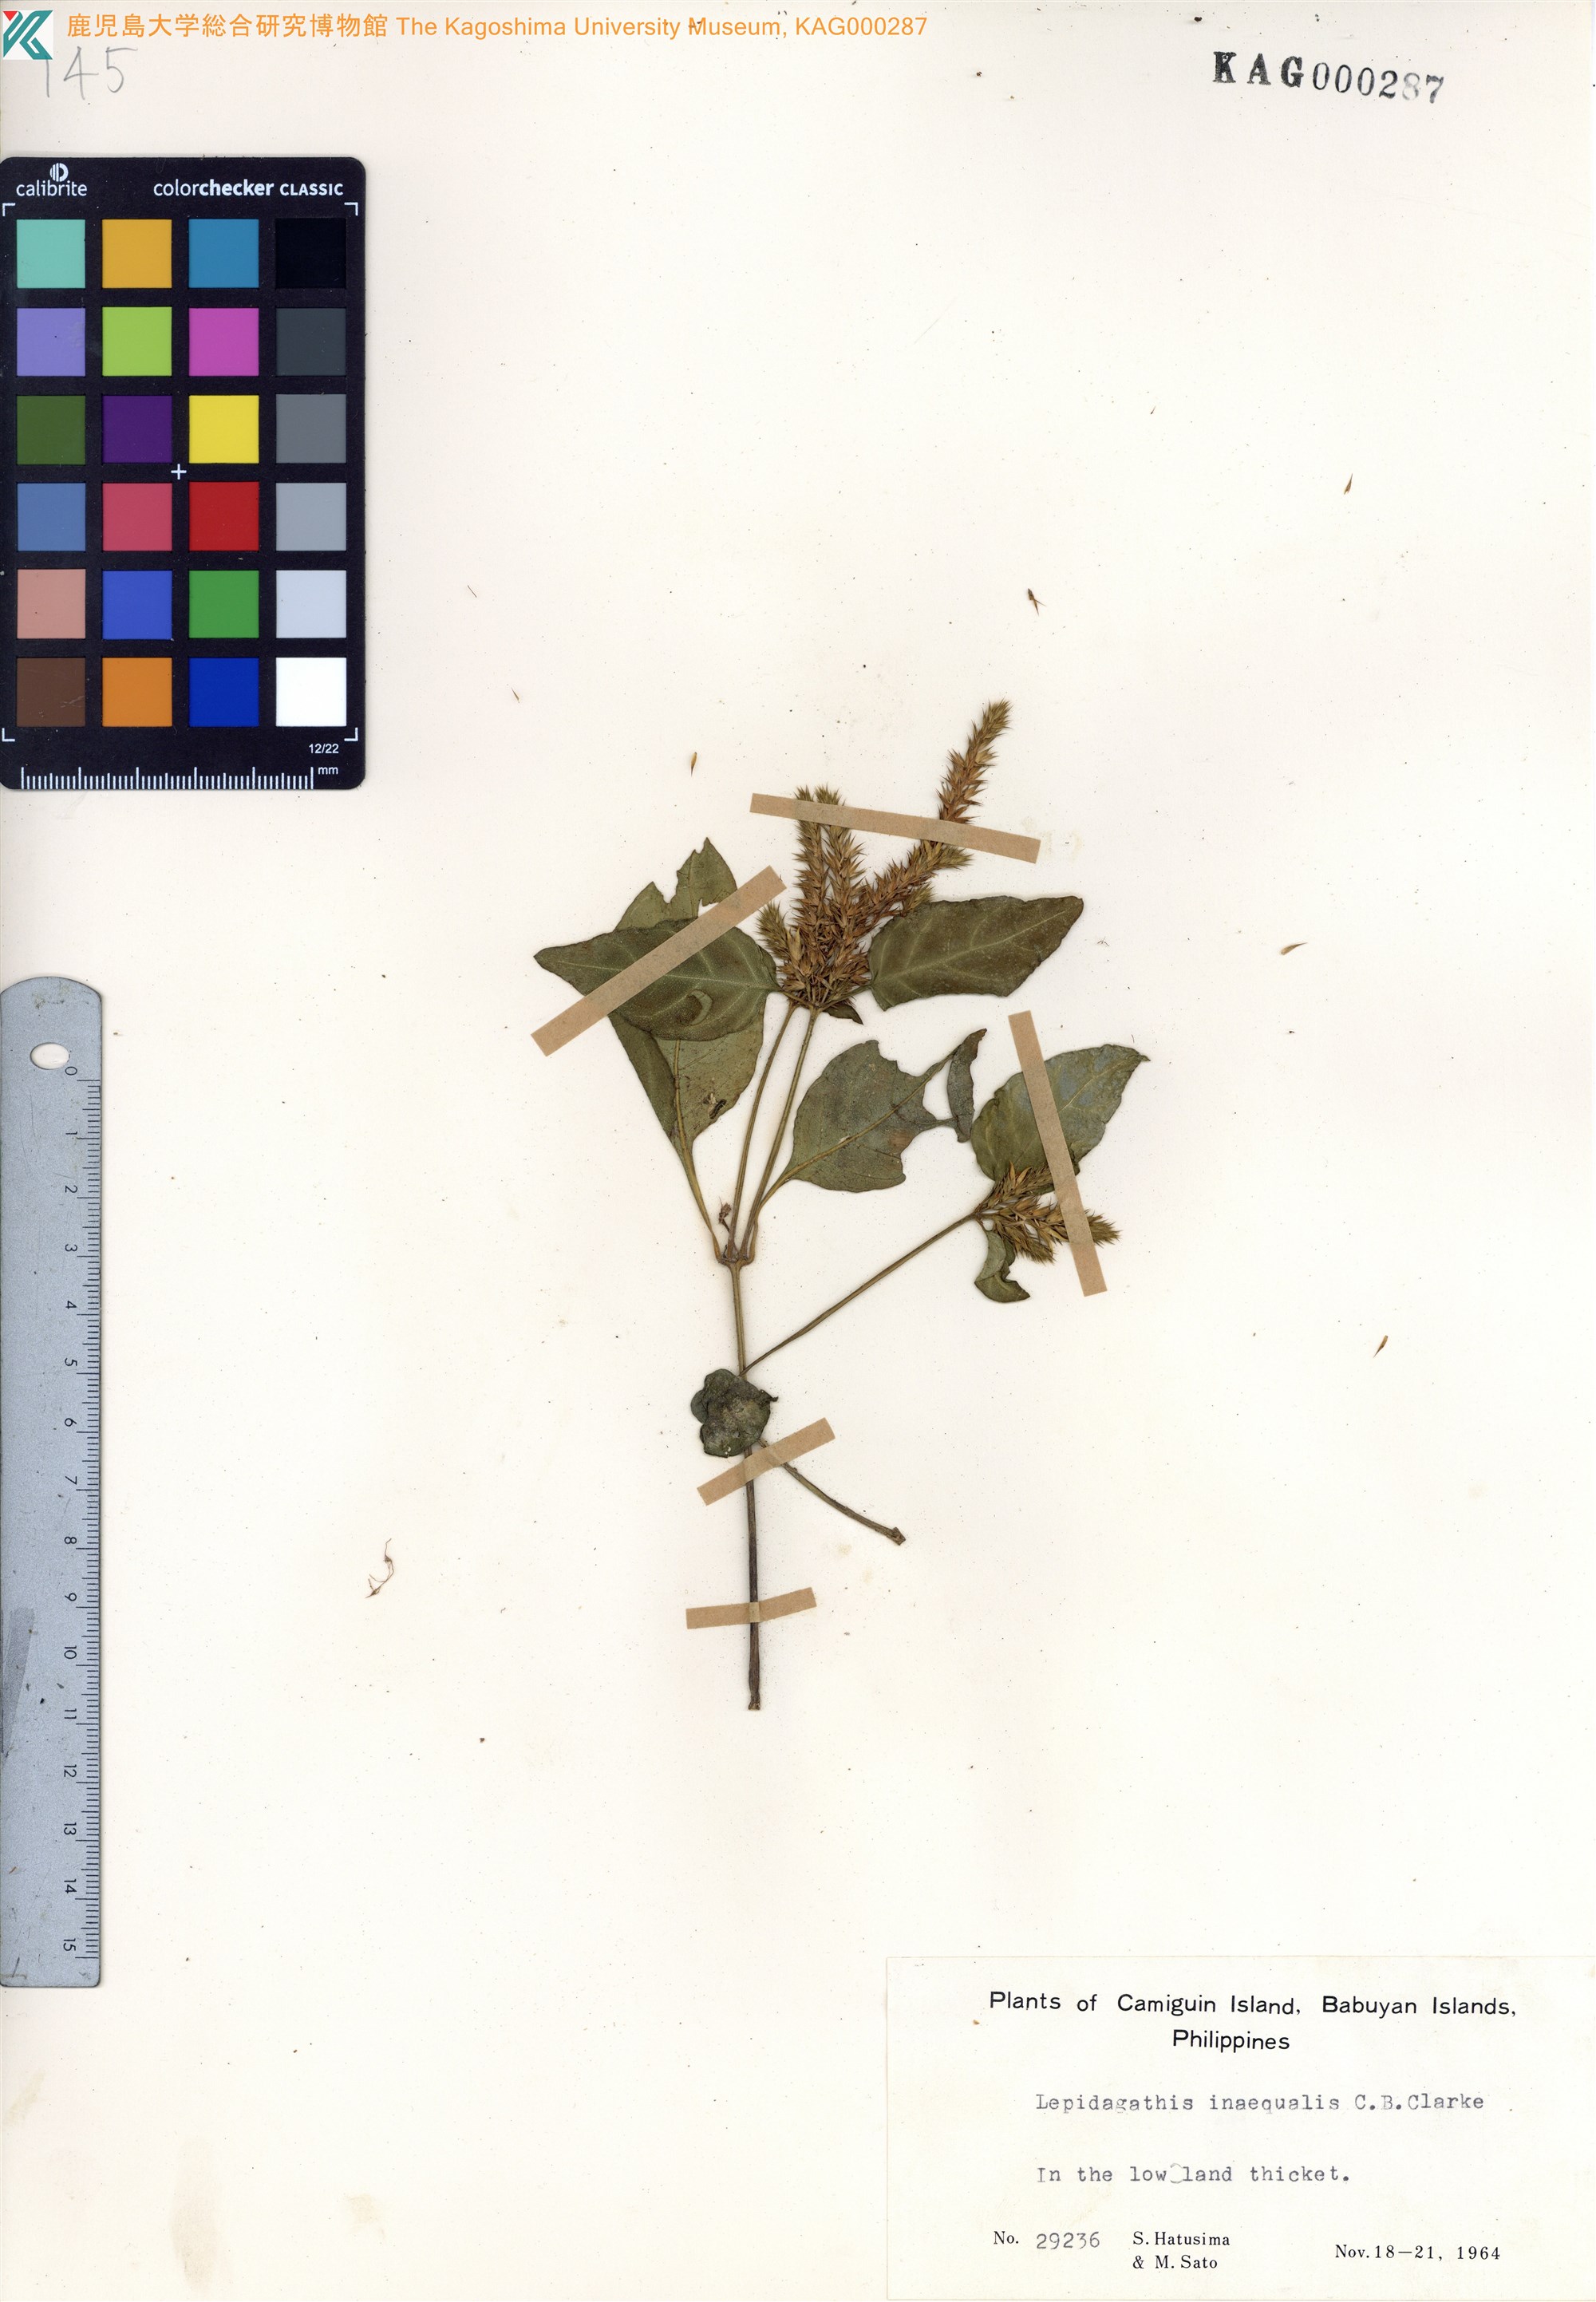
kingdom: Plantae
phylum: Tracheophyta
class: Magnoliopsida
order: Lamiales
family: Acanthaceae
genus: Lepidagathis
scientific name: Lepidagathis inaequalis
